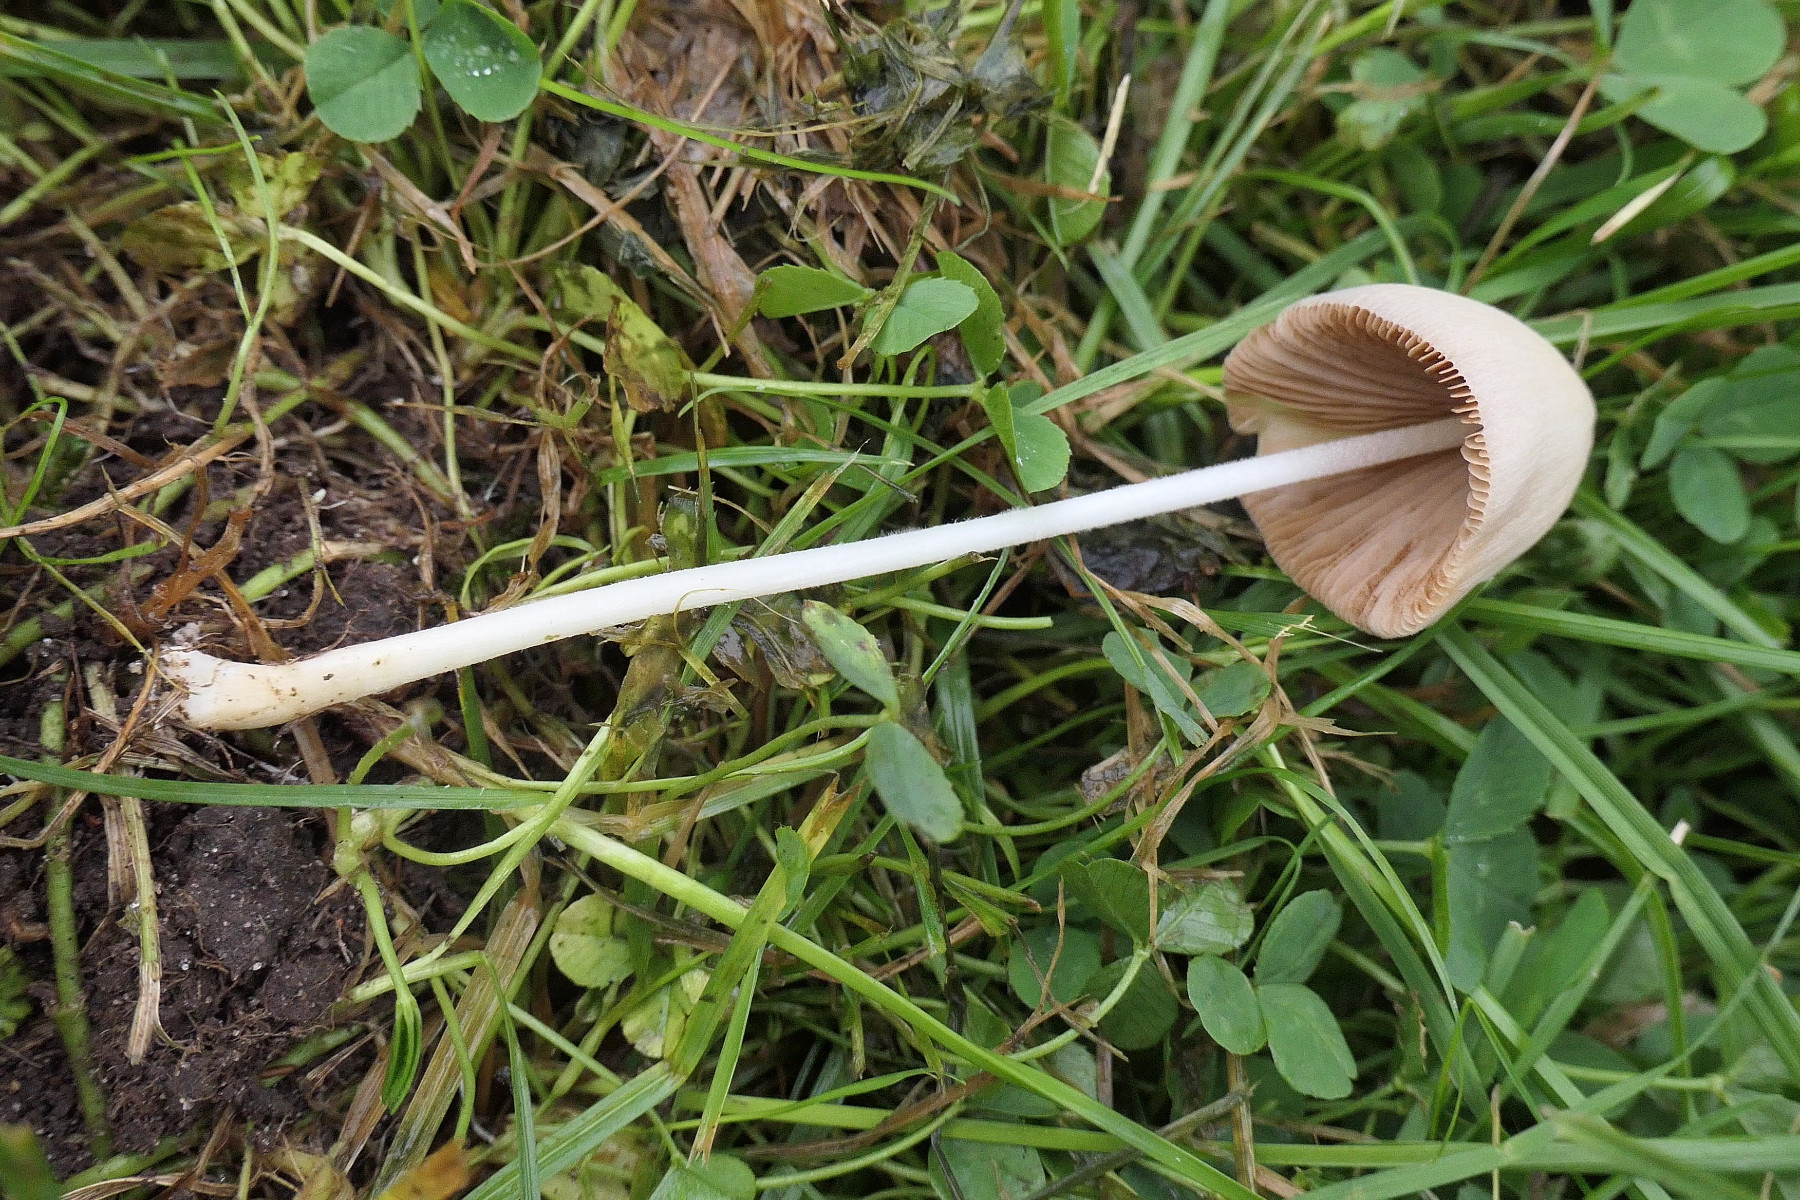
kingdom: Fungi
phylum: Basidiomycota
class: Agaricomycetes
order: Agaricales
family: Bolbitiaceae
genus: Conocybe
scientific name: Conocybe apala
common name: mælkehvid keglehat
